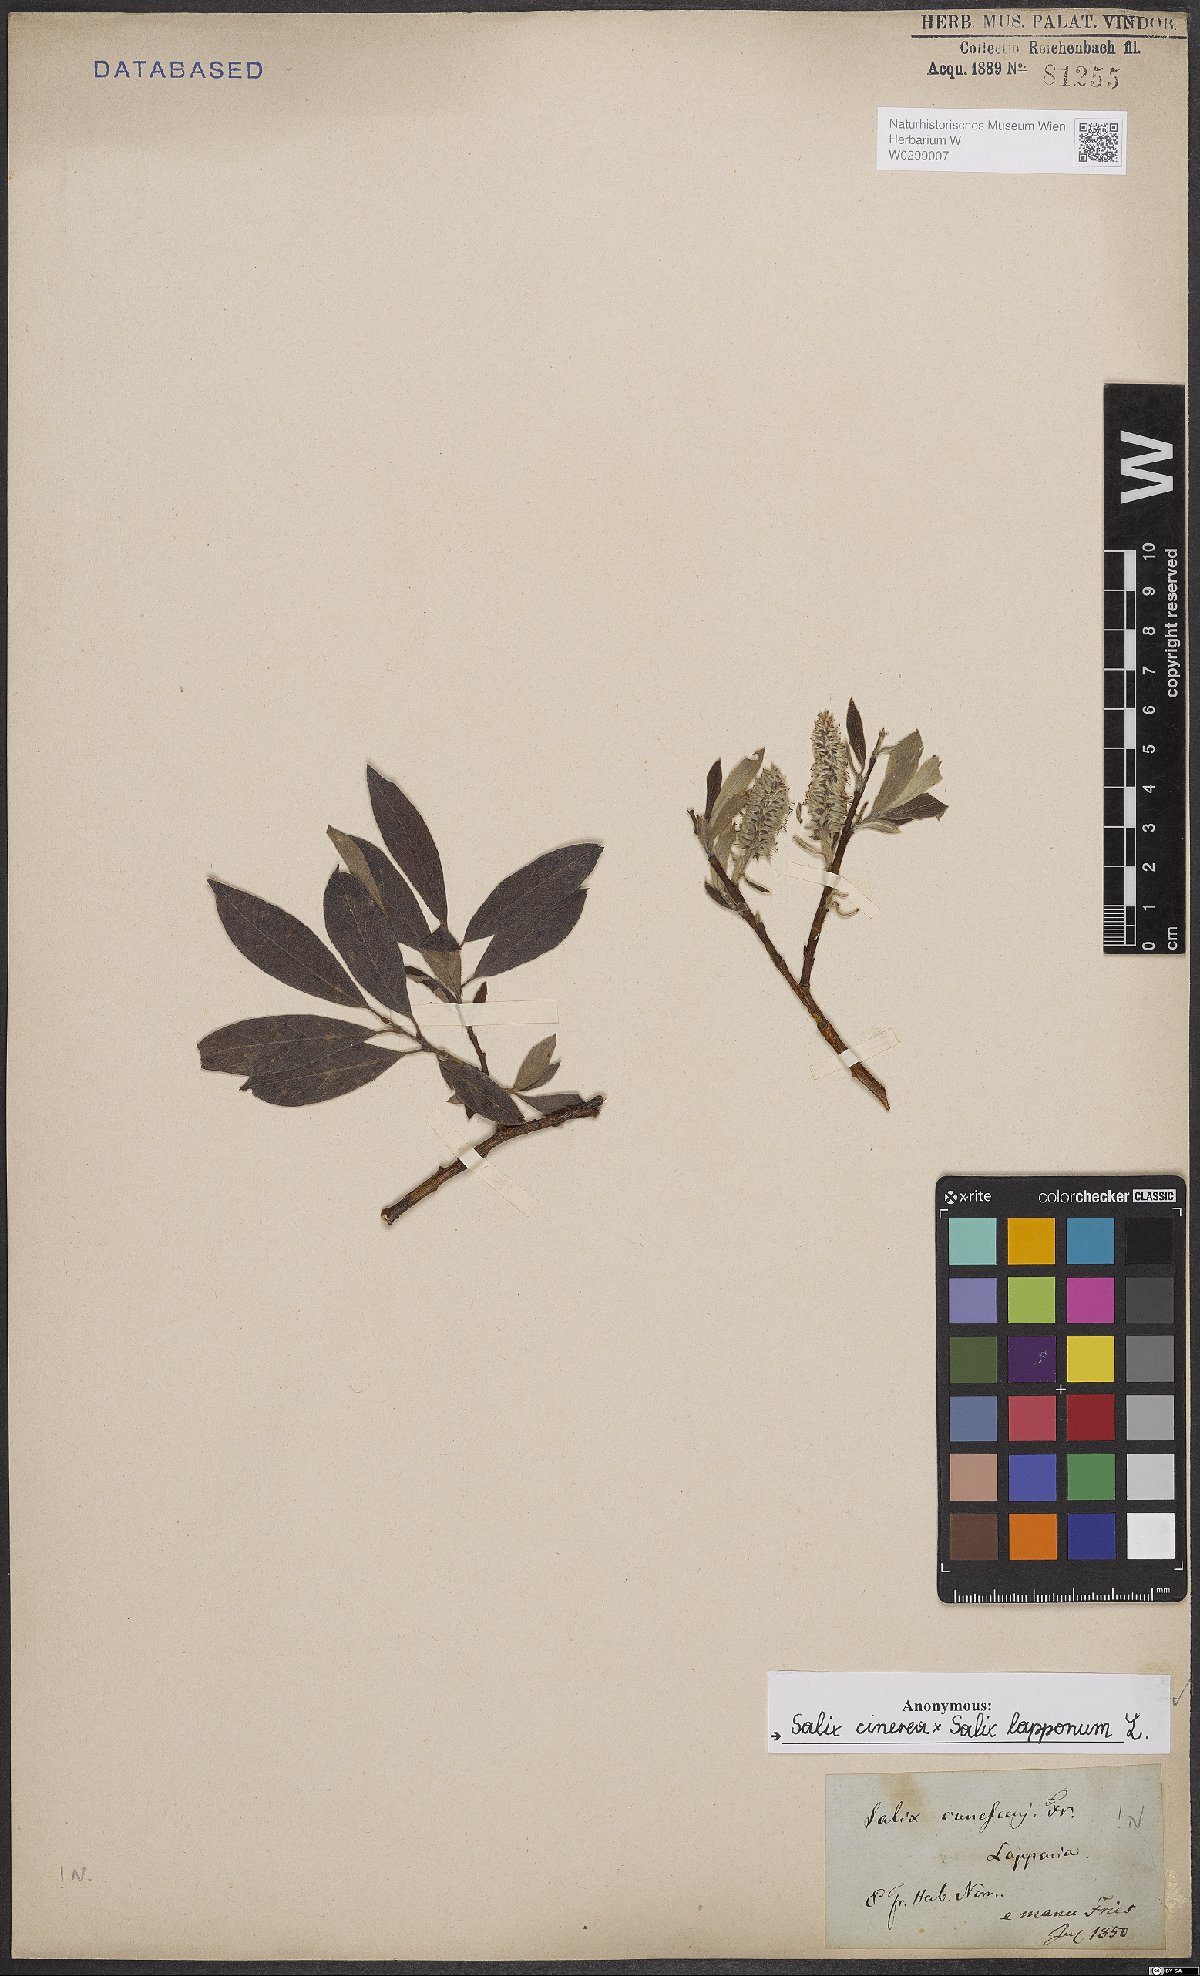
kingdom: Plantae
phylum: Tracheophyta
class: Magnoliopsida
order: Malpighiales
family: Salicaceae
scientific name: Salicaceae
